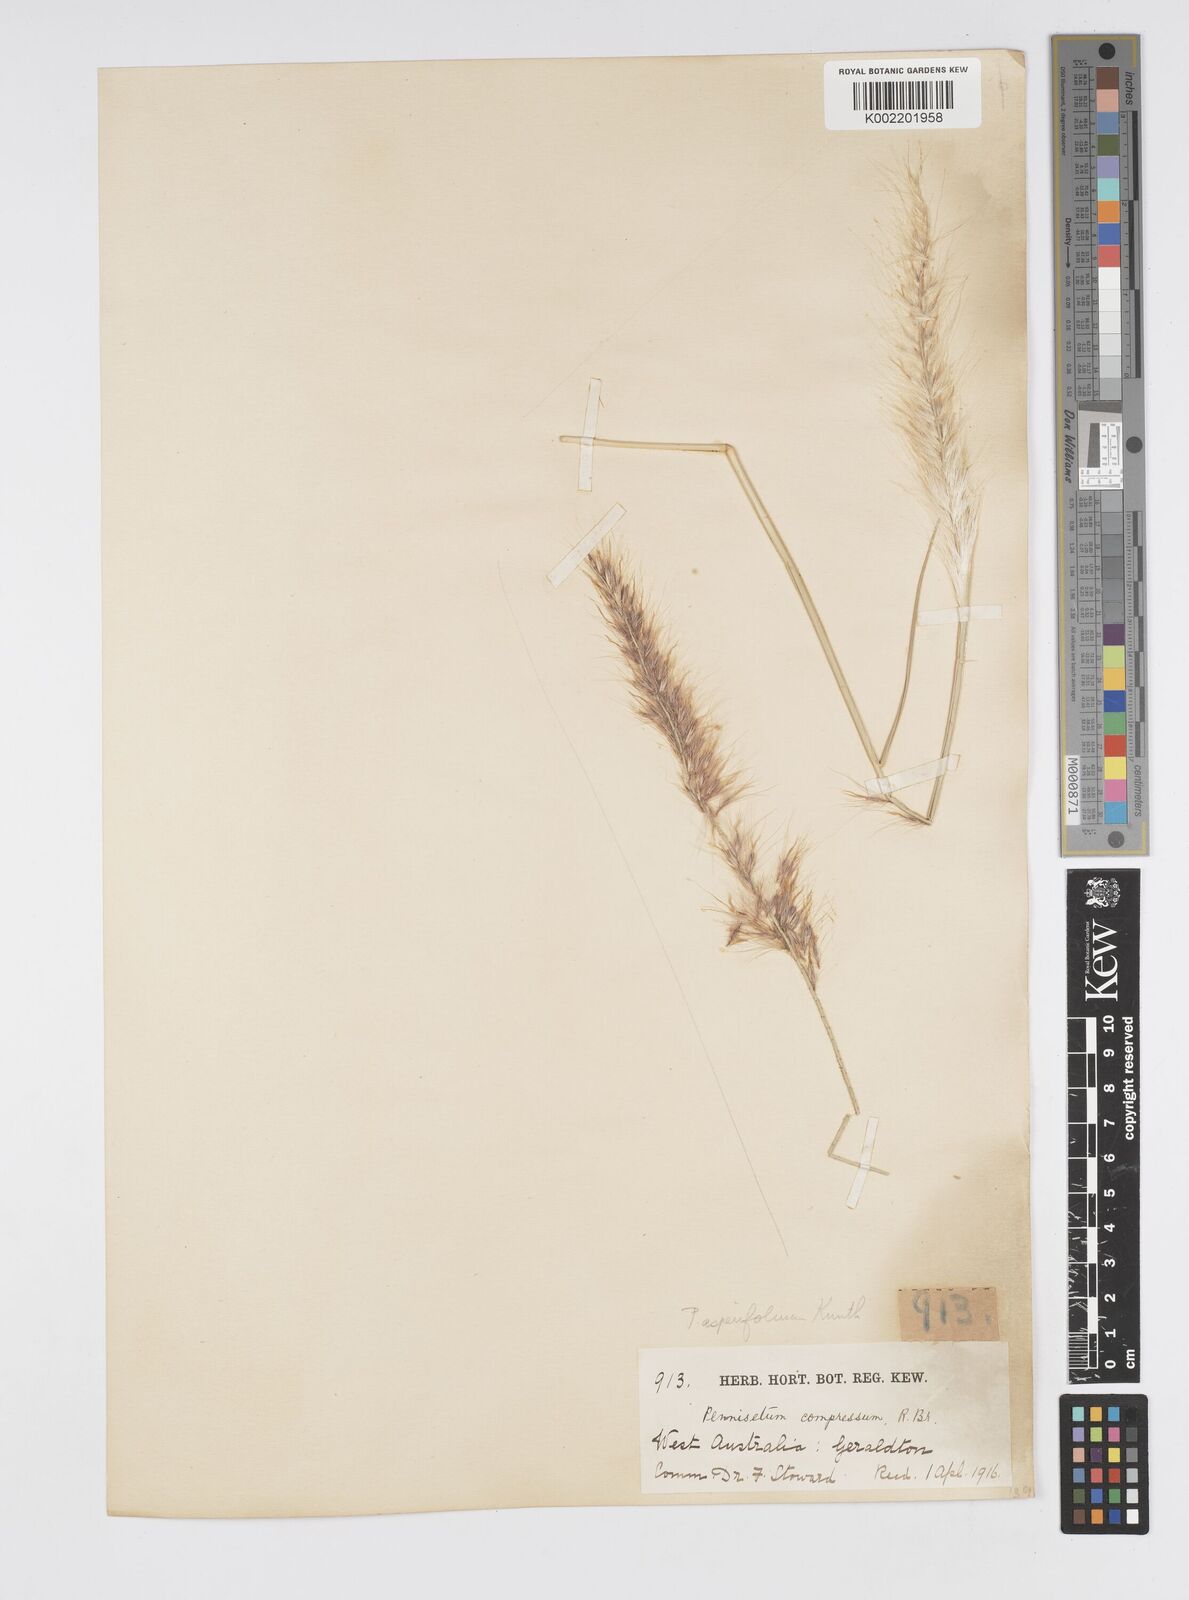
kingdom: Plantae
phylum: Tracheophyta
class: Liliopsida
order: Poales
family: Poaceae
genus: Cenchrus
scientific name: Cenchrus setaceus
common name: Crimson fountaingrass
